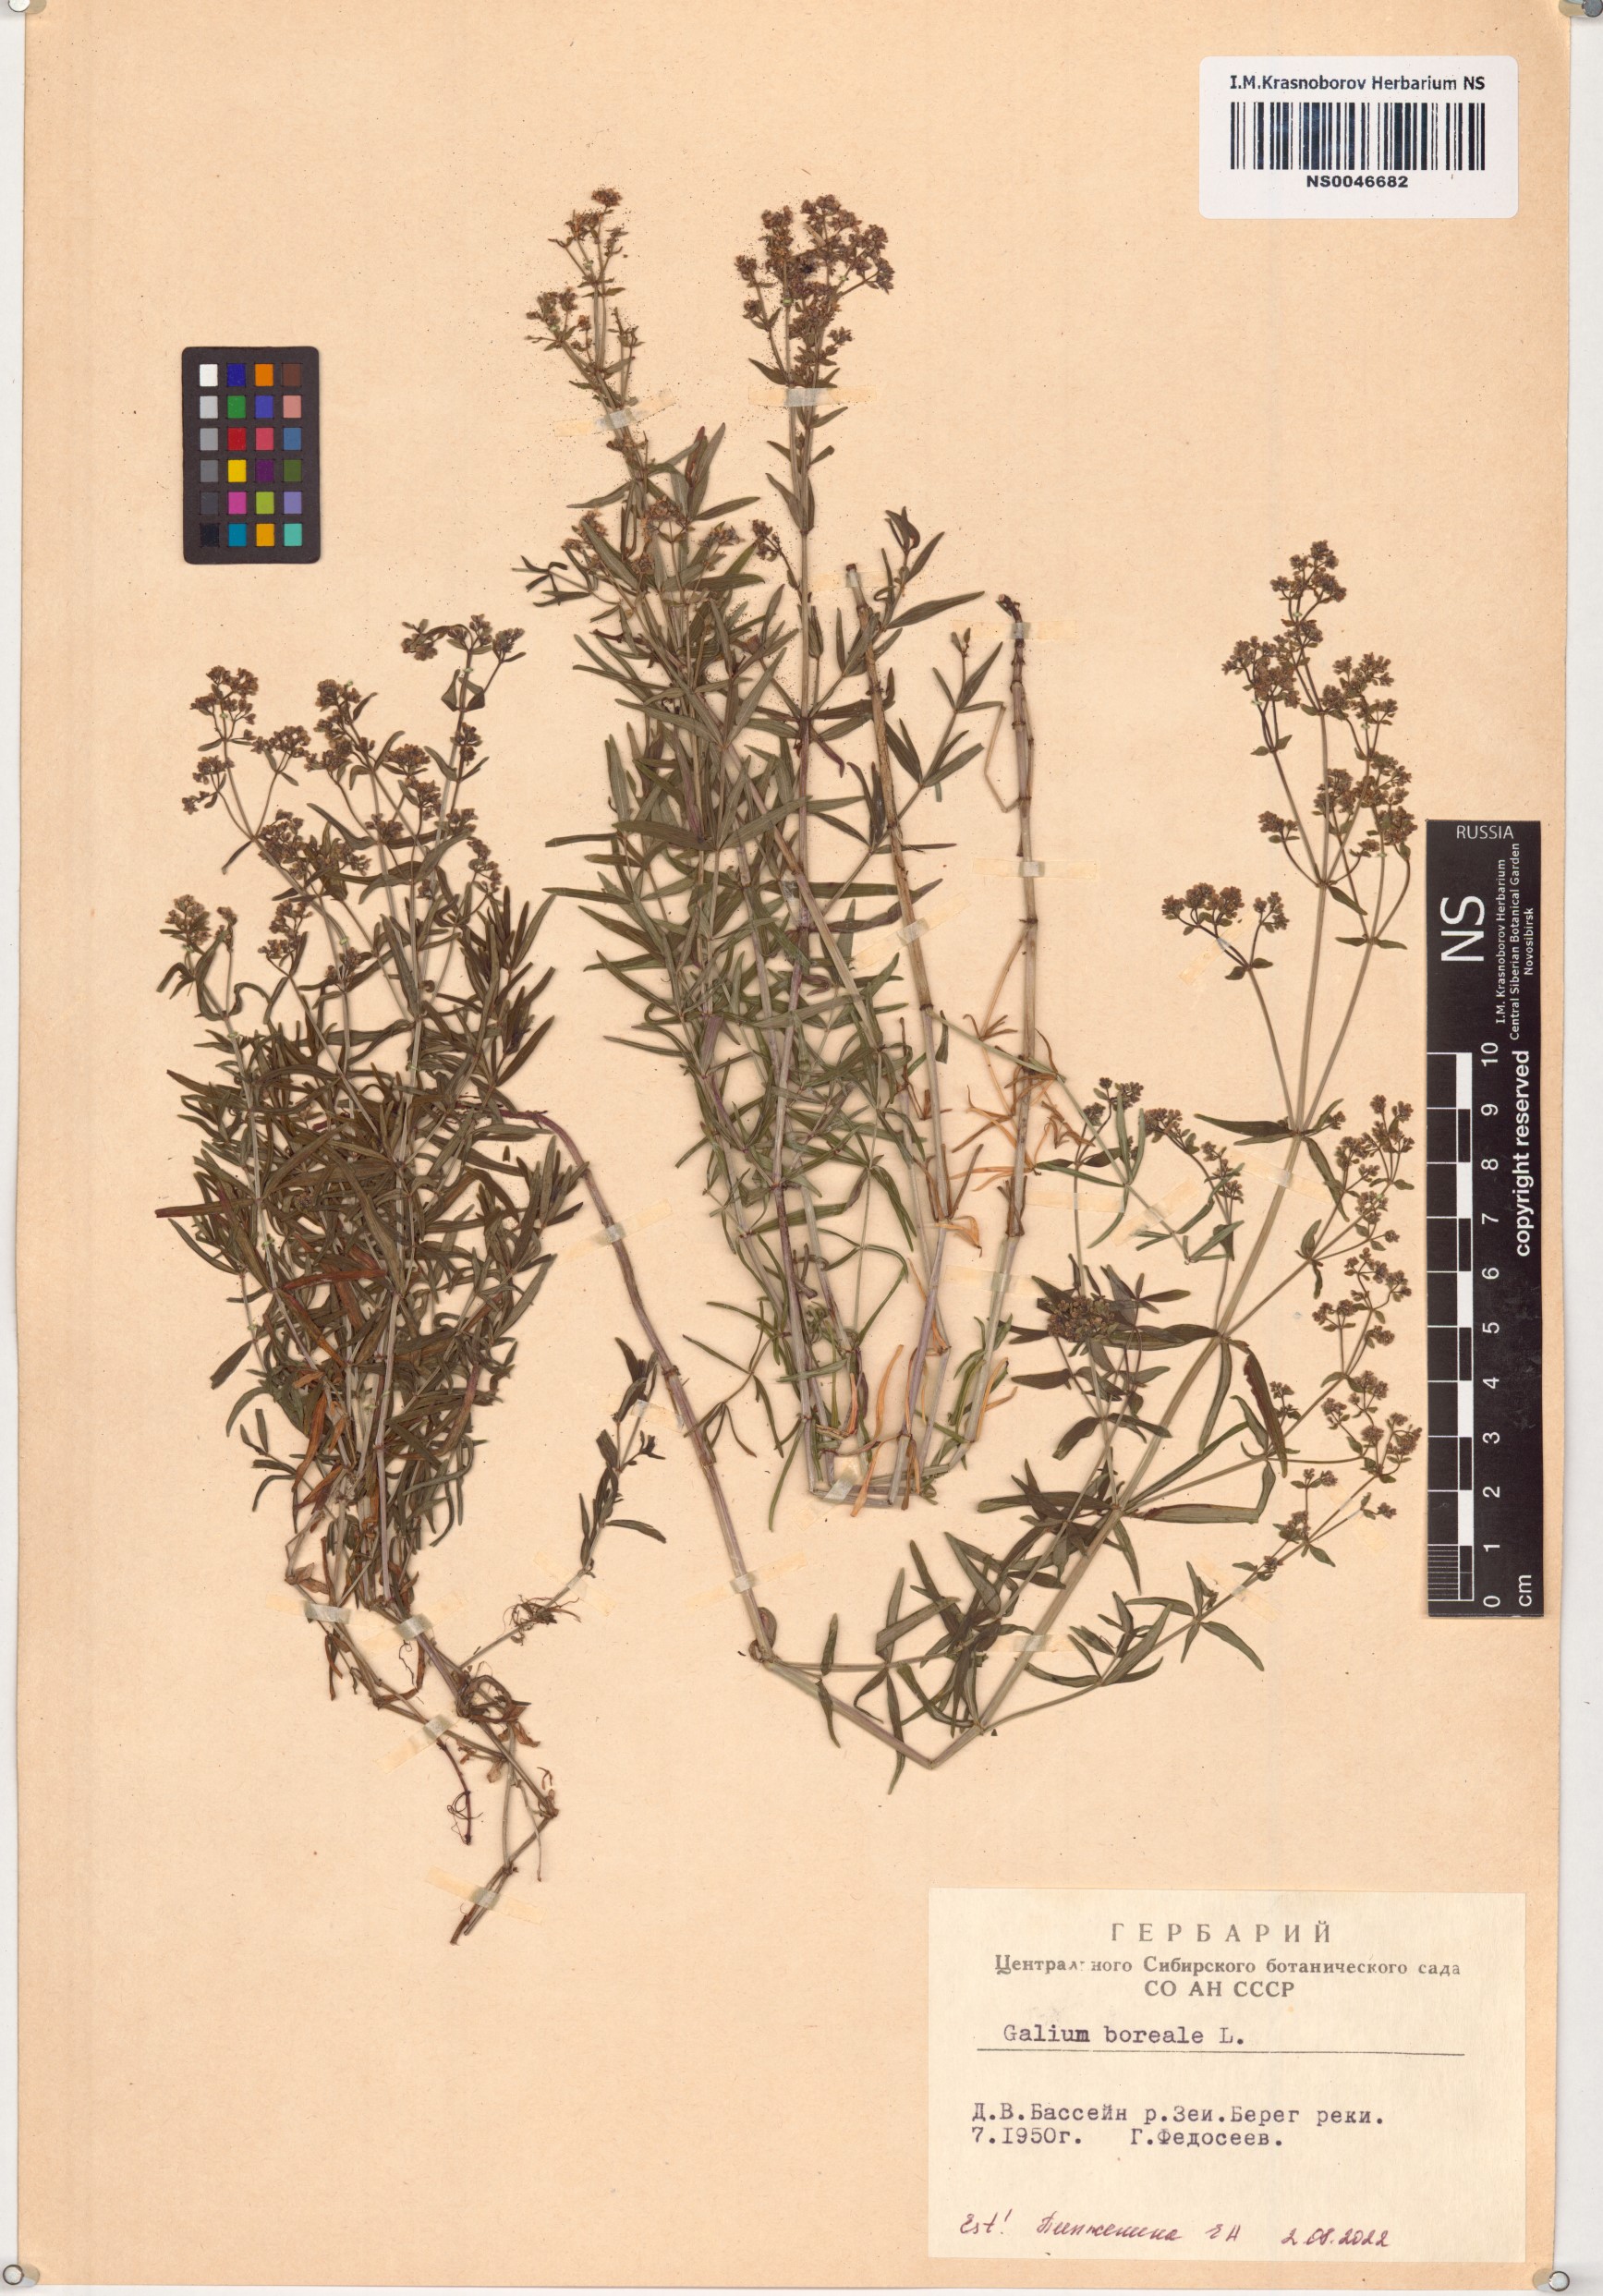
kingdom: Plantae
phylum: Tracheophyta
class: Magnoliopsida
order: Gentianales
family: Rubiaceae
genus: Galium
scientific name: Galium boreale
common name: Northern bedstraw
